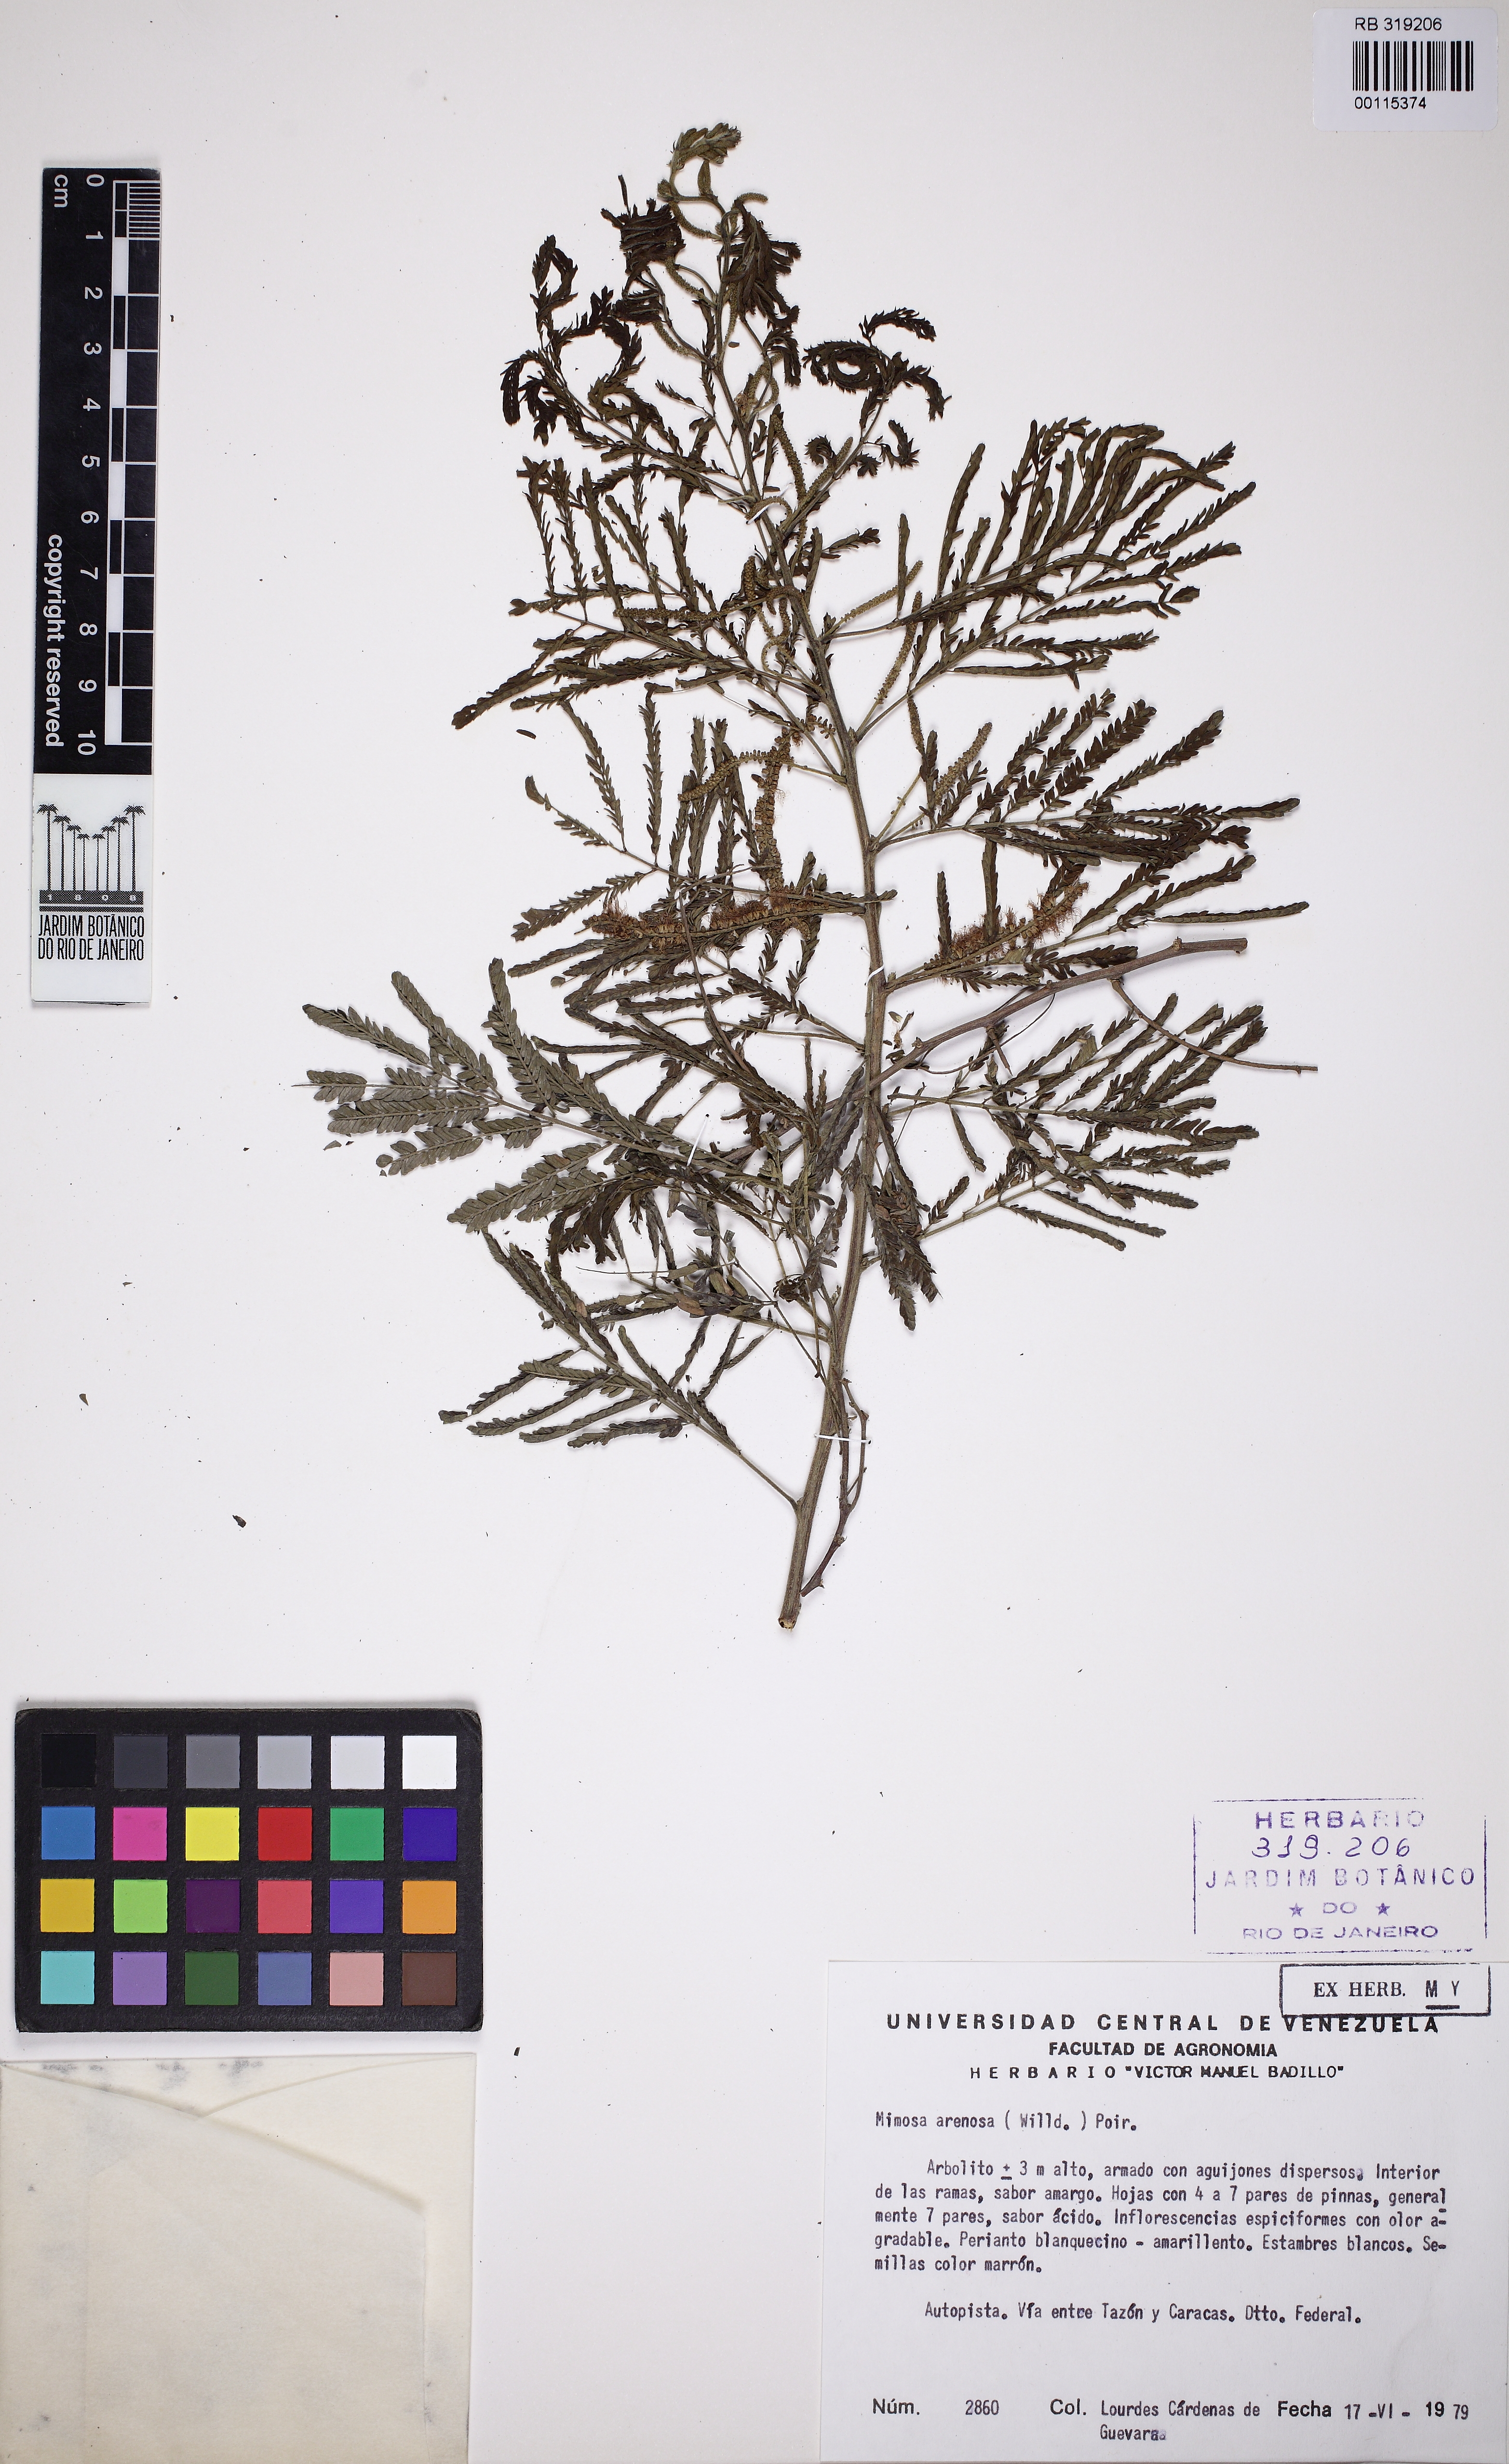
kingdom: Plantae
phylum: Tracheophyta
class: Magnoliopsida
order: Fabales
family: Fabaceae
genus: Mimosa
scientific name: Mimosa arenosa
